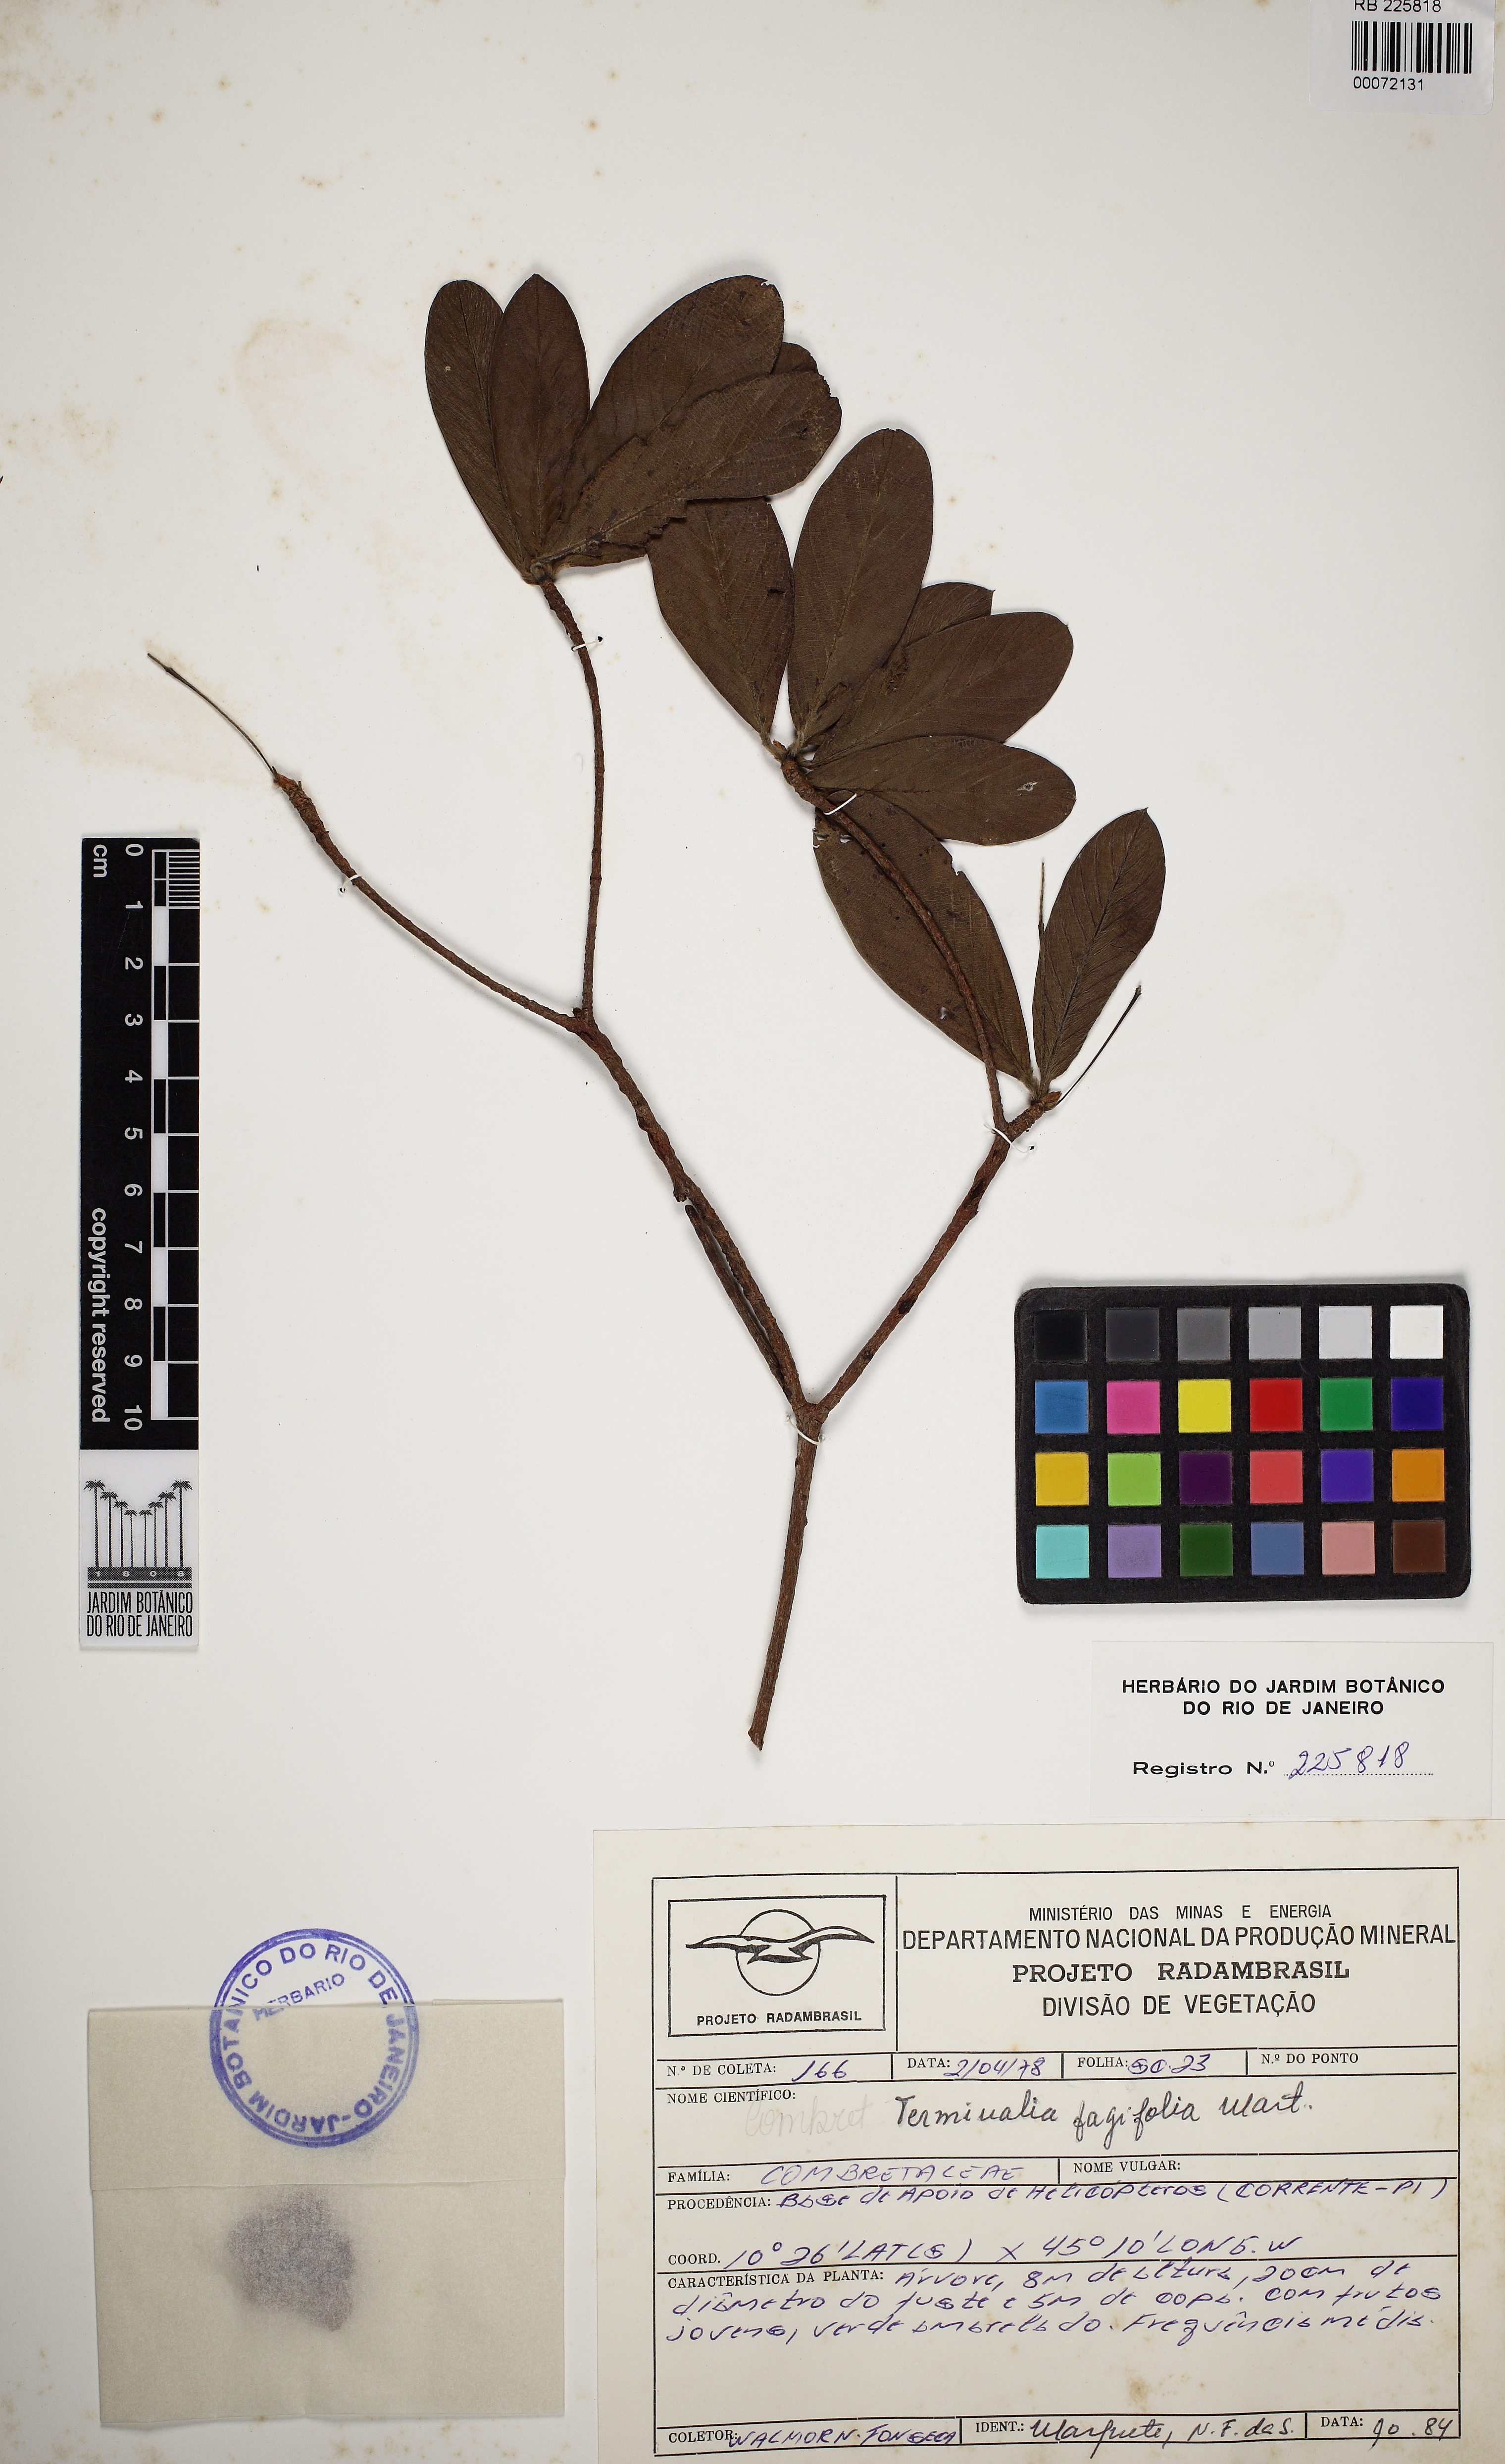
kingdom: Plantae
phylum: Tracheophyta
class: Magnoliopsida
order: Myrtales
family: Combretaceae
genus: Terminalia
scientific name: Terminalia fagifolia
